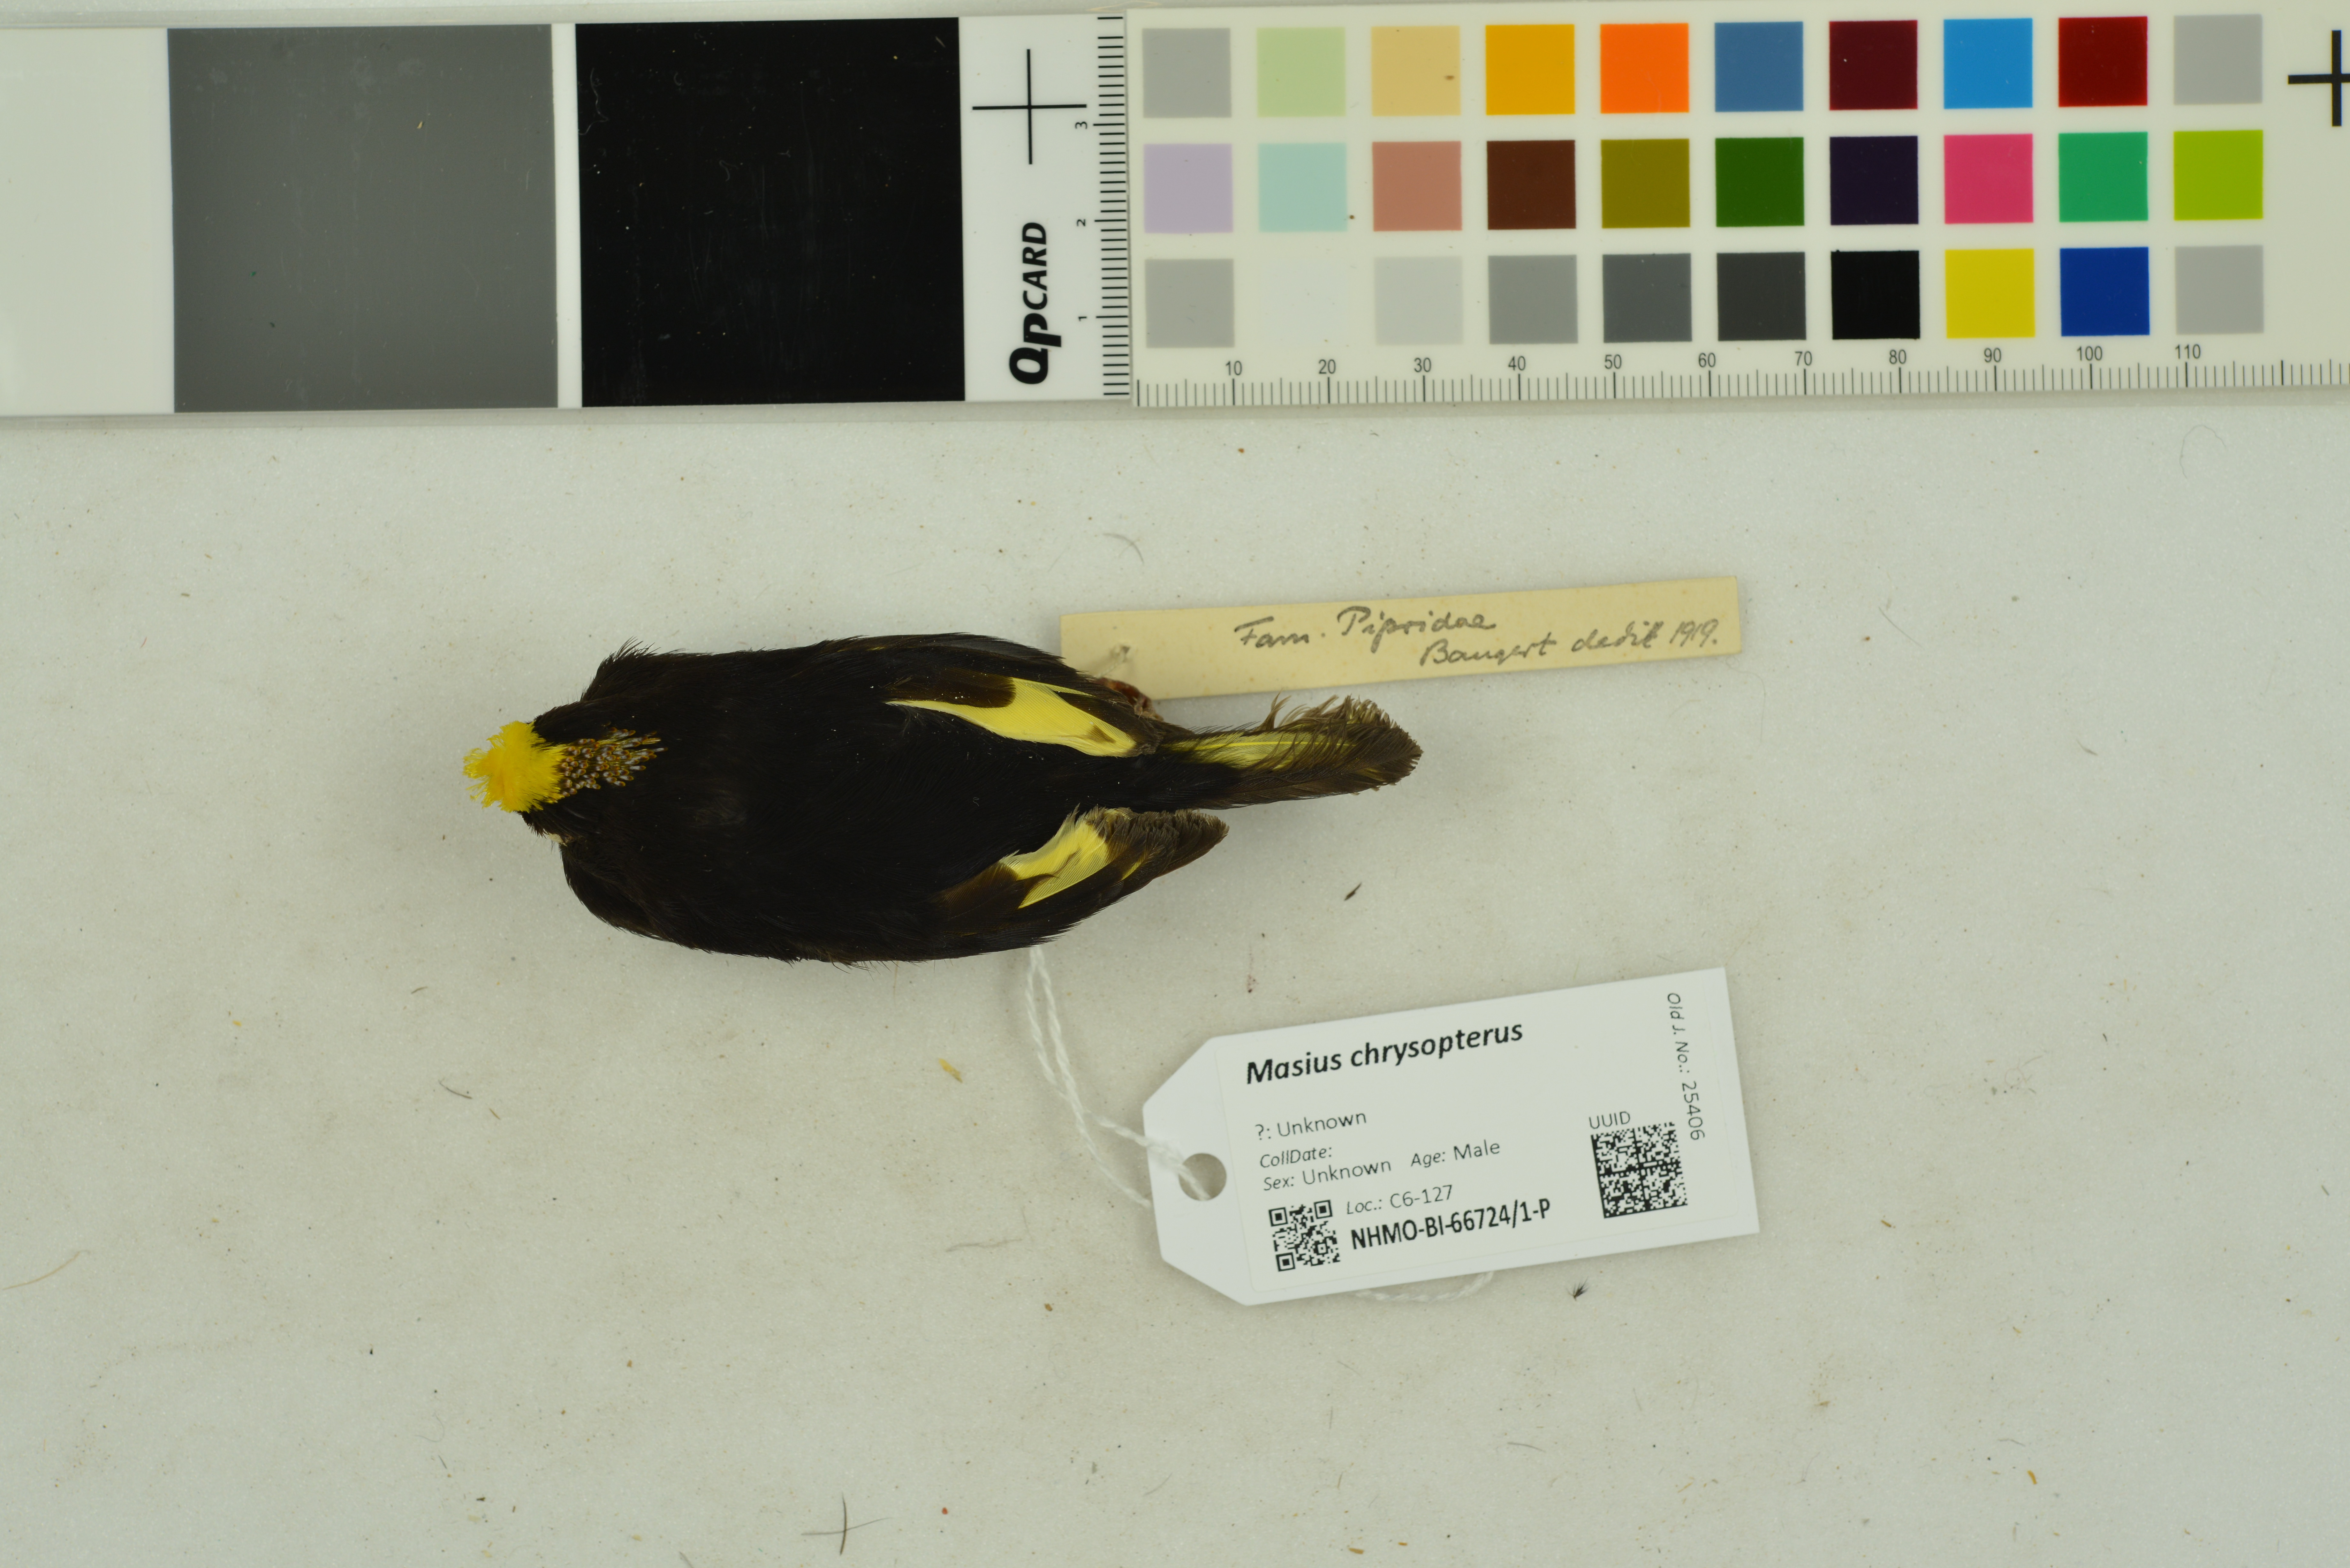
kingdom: Animalia
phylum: Chordata
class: Aves
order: Passeriformes
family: Pipridae
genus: Masius
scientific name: Masius chrysopterus
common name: Golden-winged manakin
